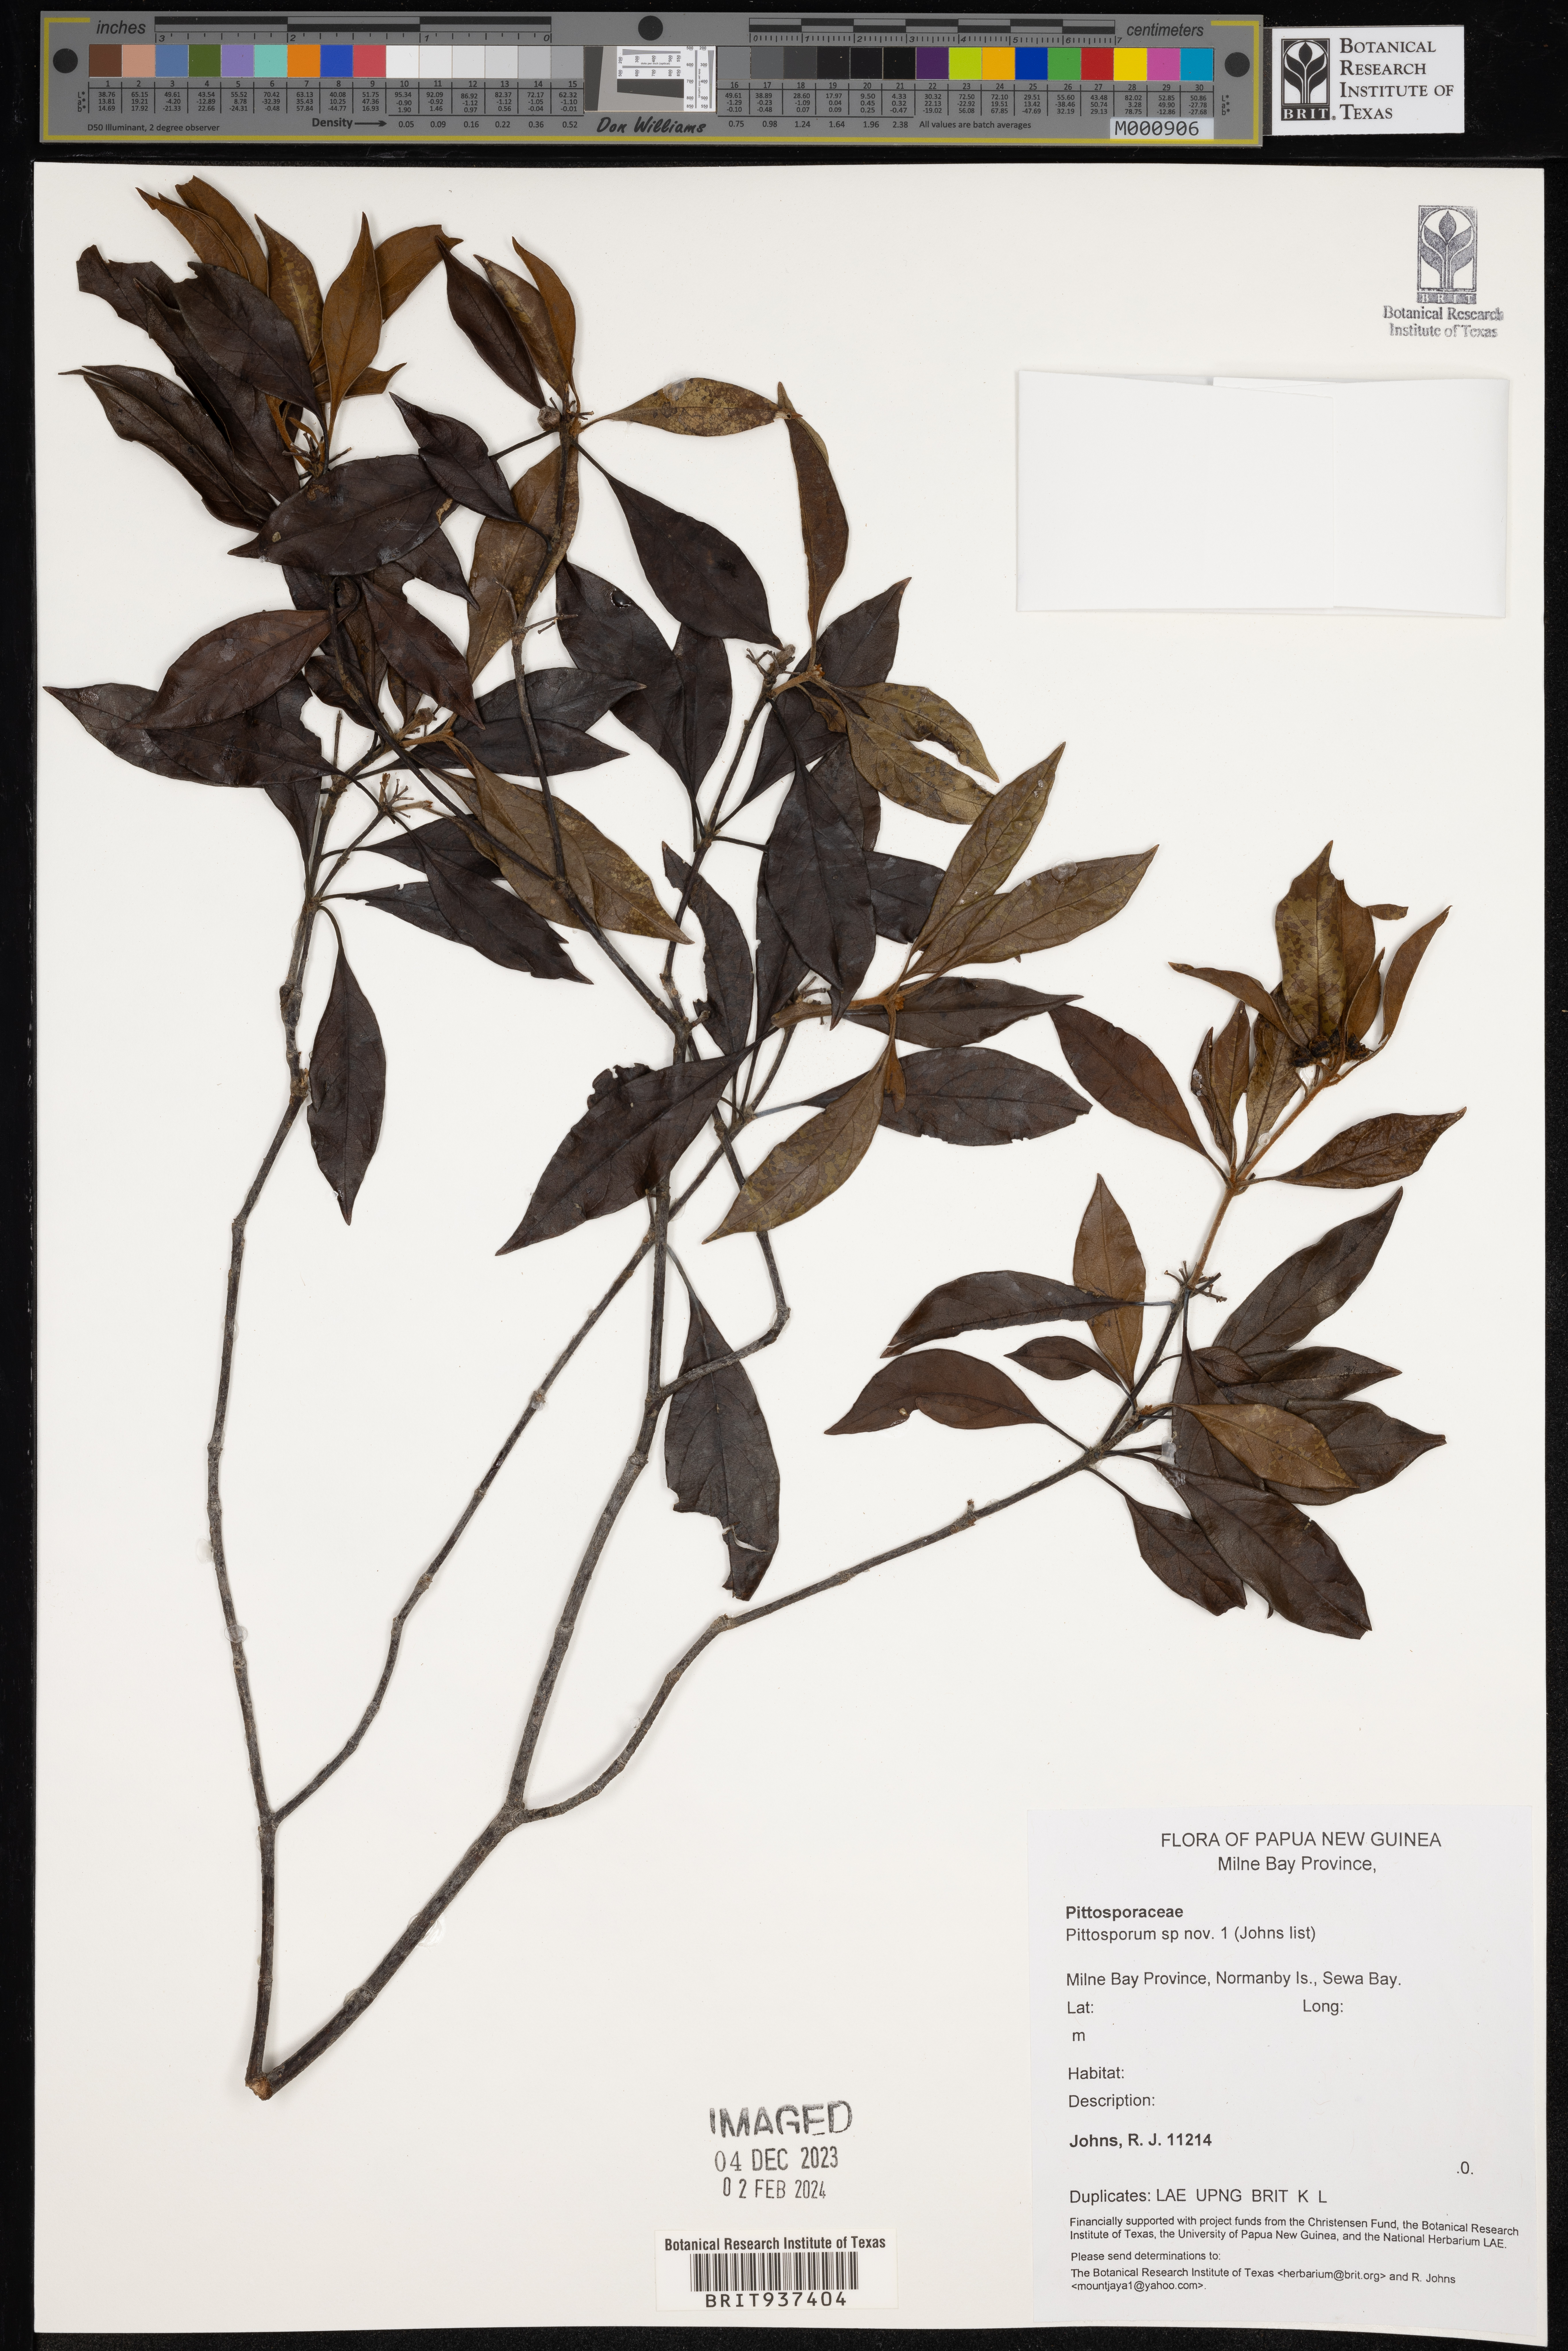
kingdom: Plantae
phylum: Tracheophyta
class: Magnoliopsida
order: Apiales
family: Pittosporaceae
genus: Pittosporum
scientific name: Pittosporum
